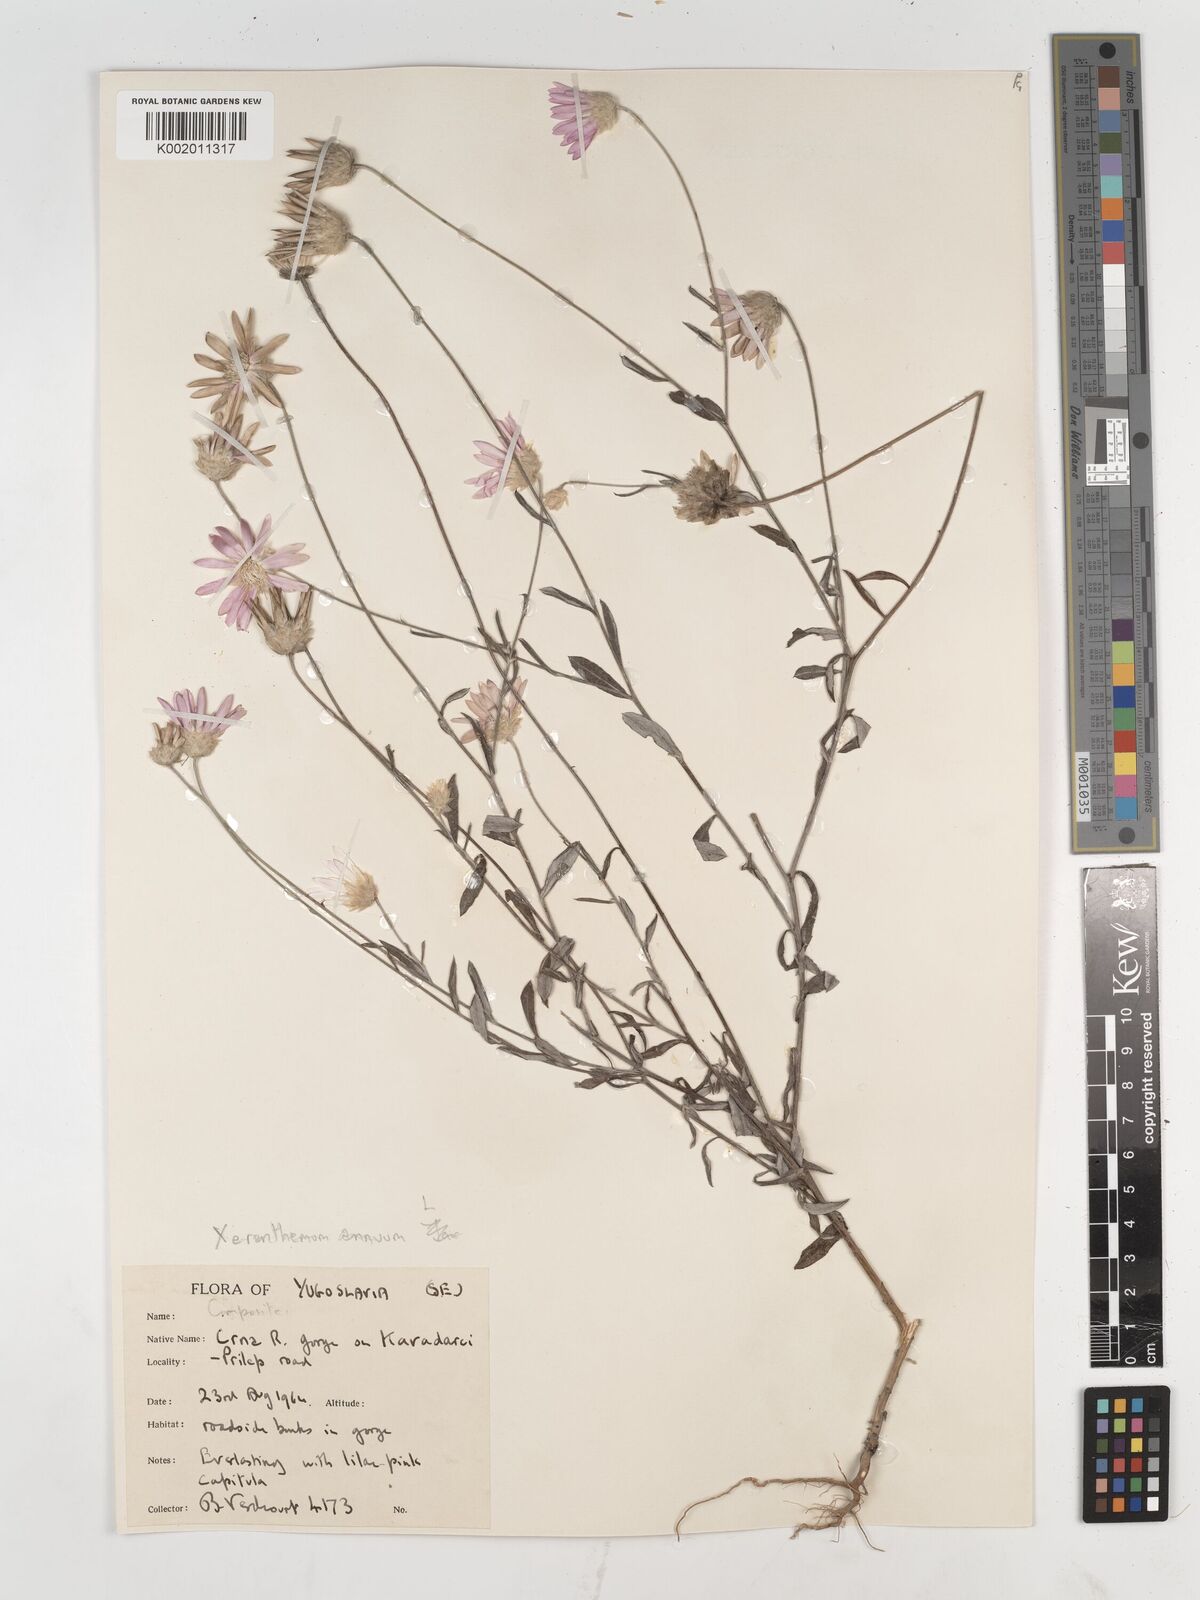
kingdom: Plantae
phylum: Tracheophyta
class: Magnoliopsida
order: Asterales
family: Asteraceae
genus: Xeranthemum
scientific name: Xeranthemum annuum
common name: Immortelle
